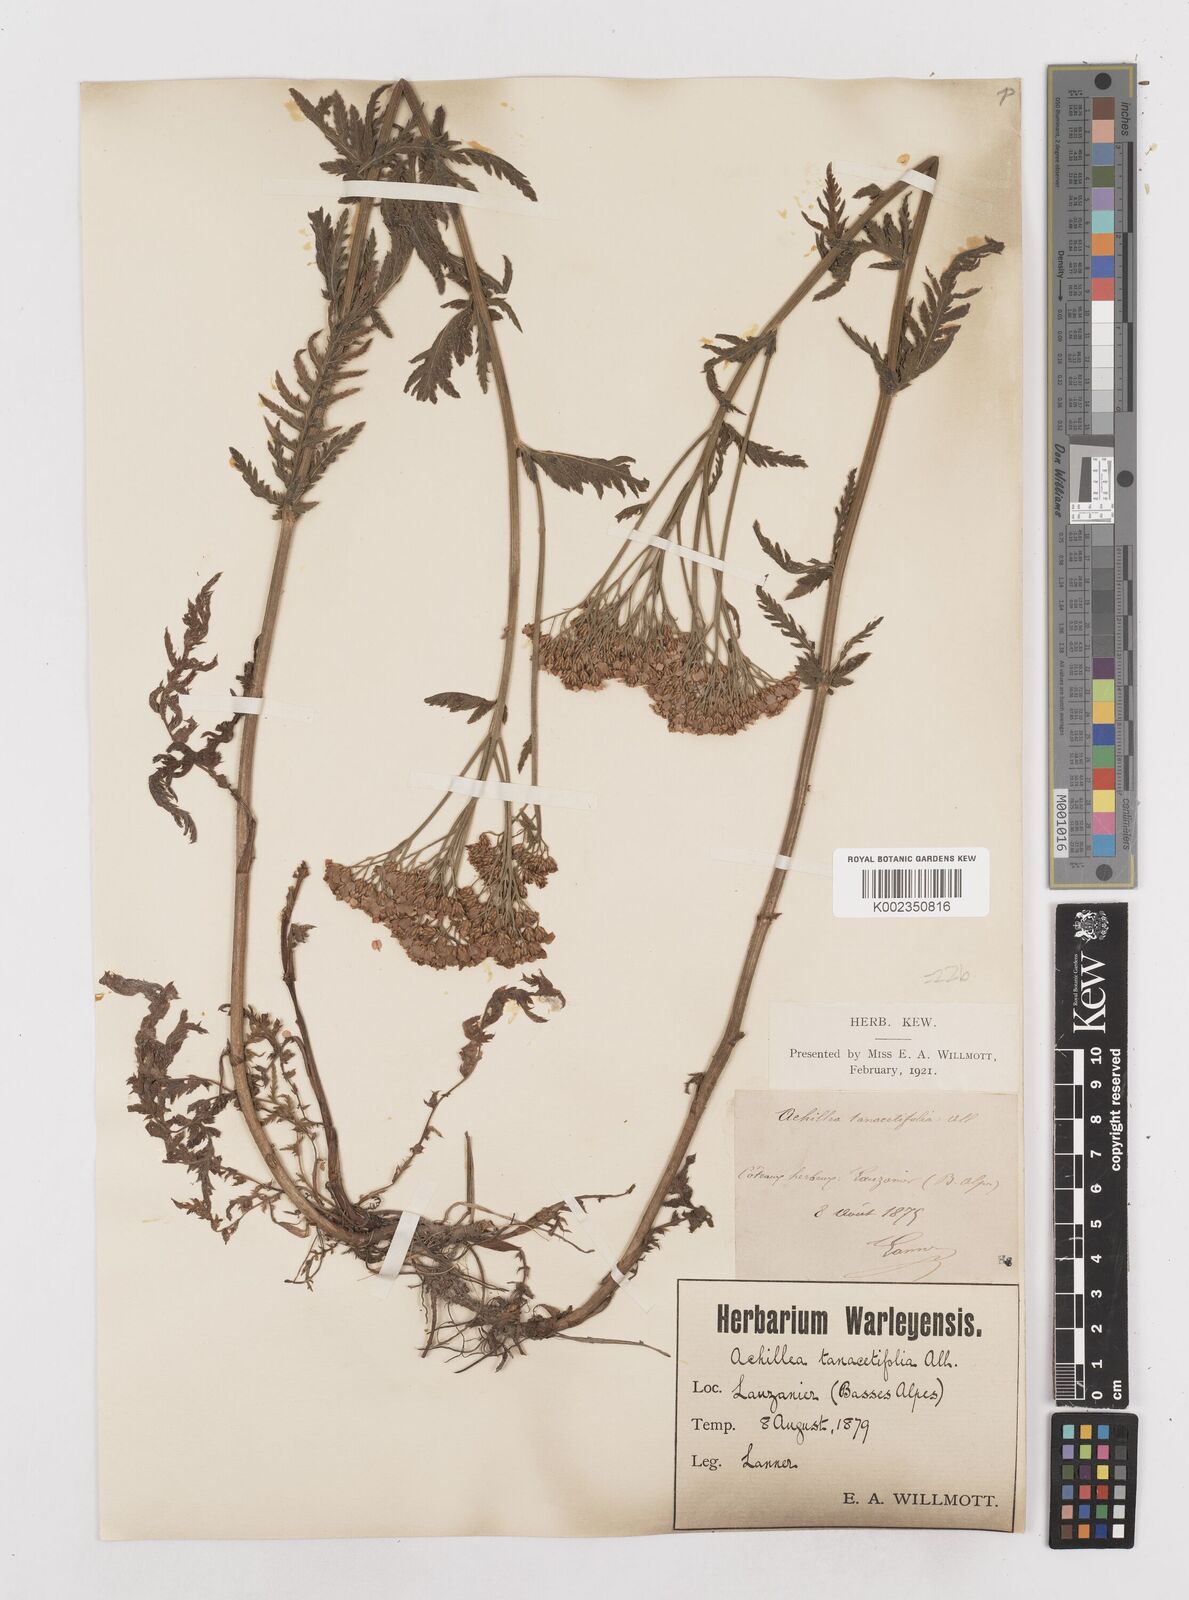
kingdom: Plantae
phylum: Tracheophyta
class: Magnoliopsida
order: Asterales
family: Asteraceae
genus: Achillea
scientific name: Achillea distans
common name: Tall yarrow
